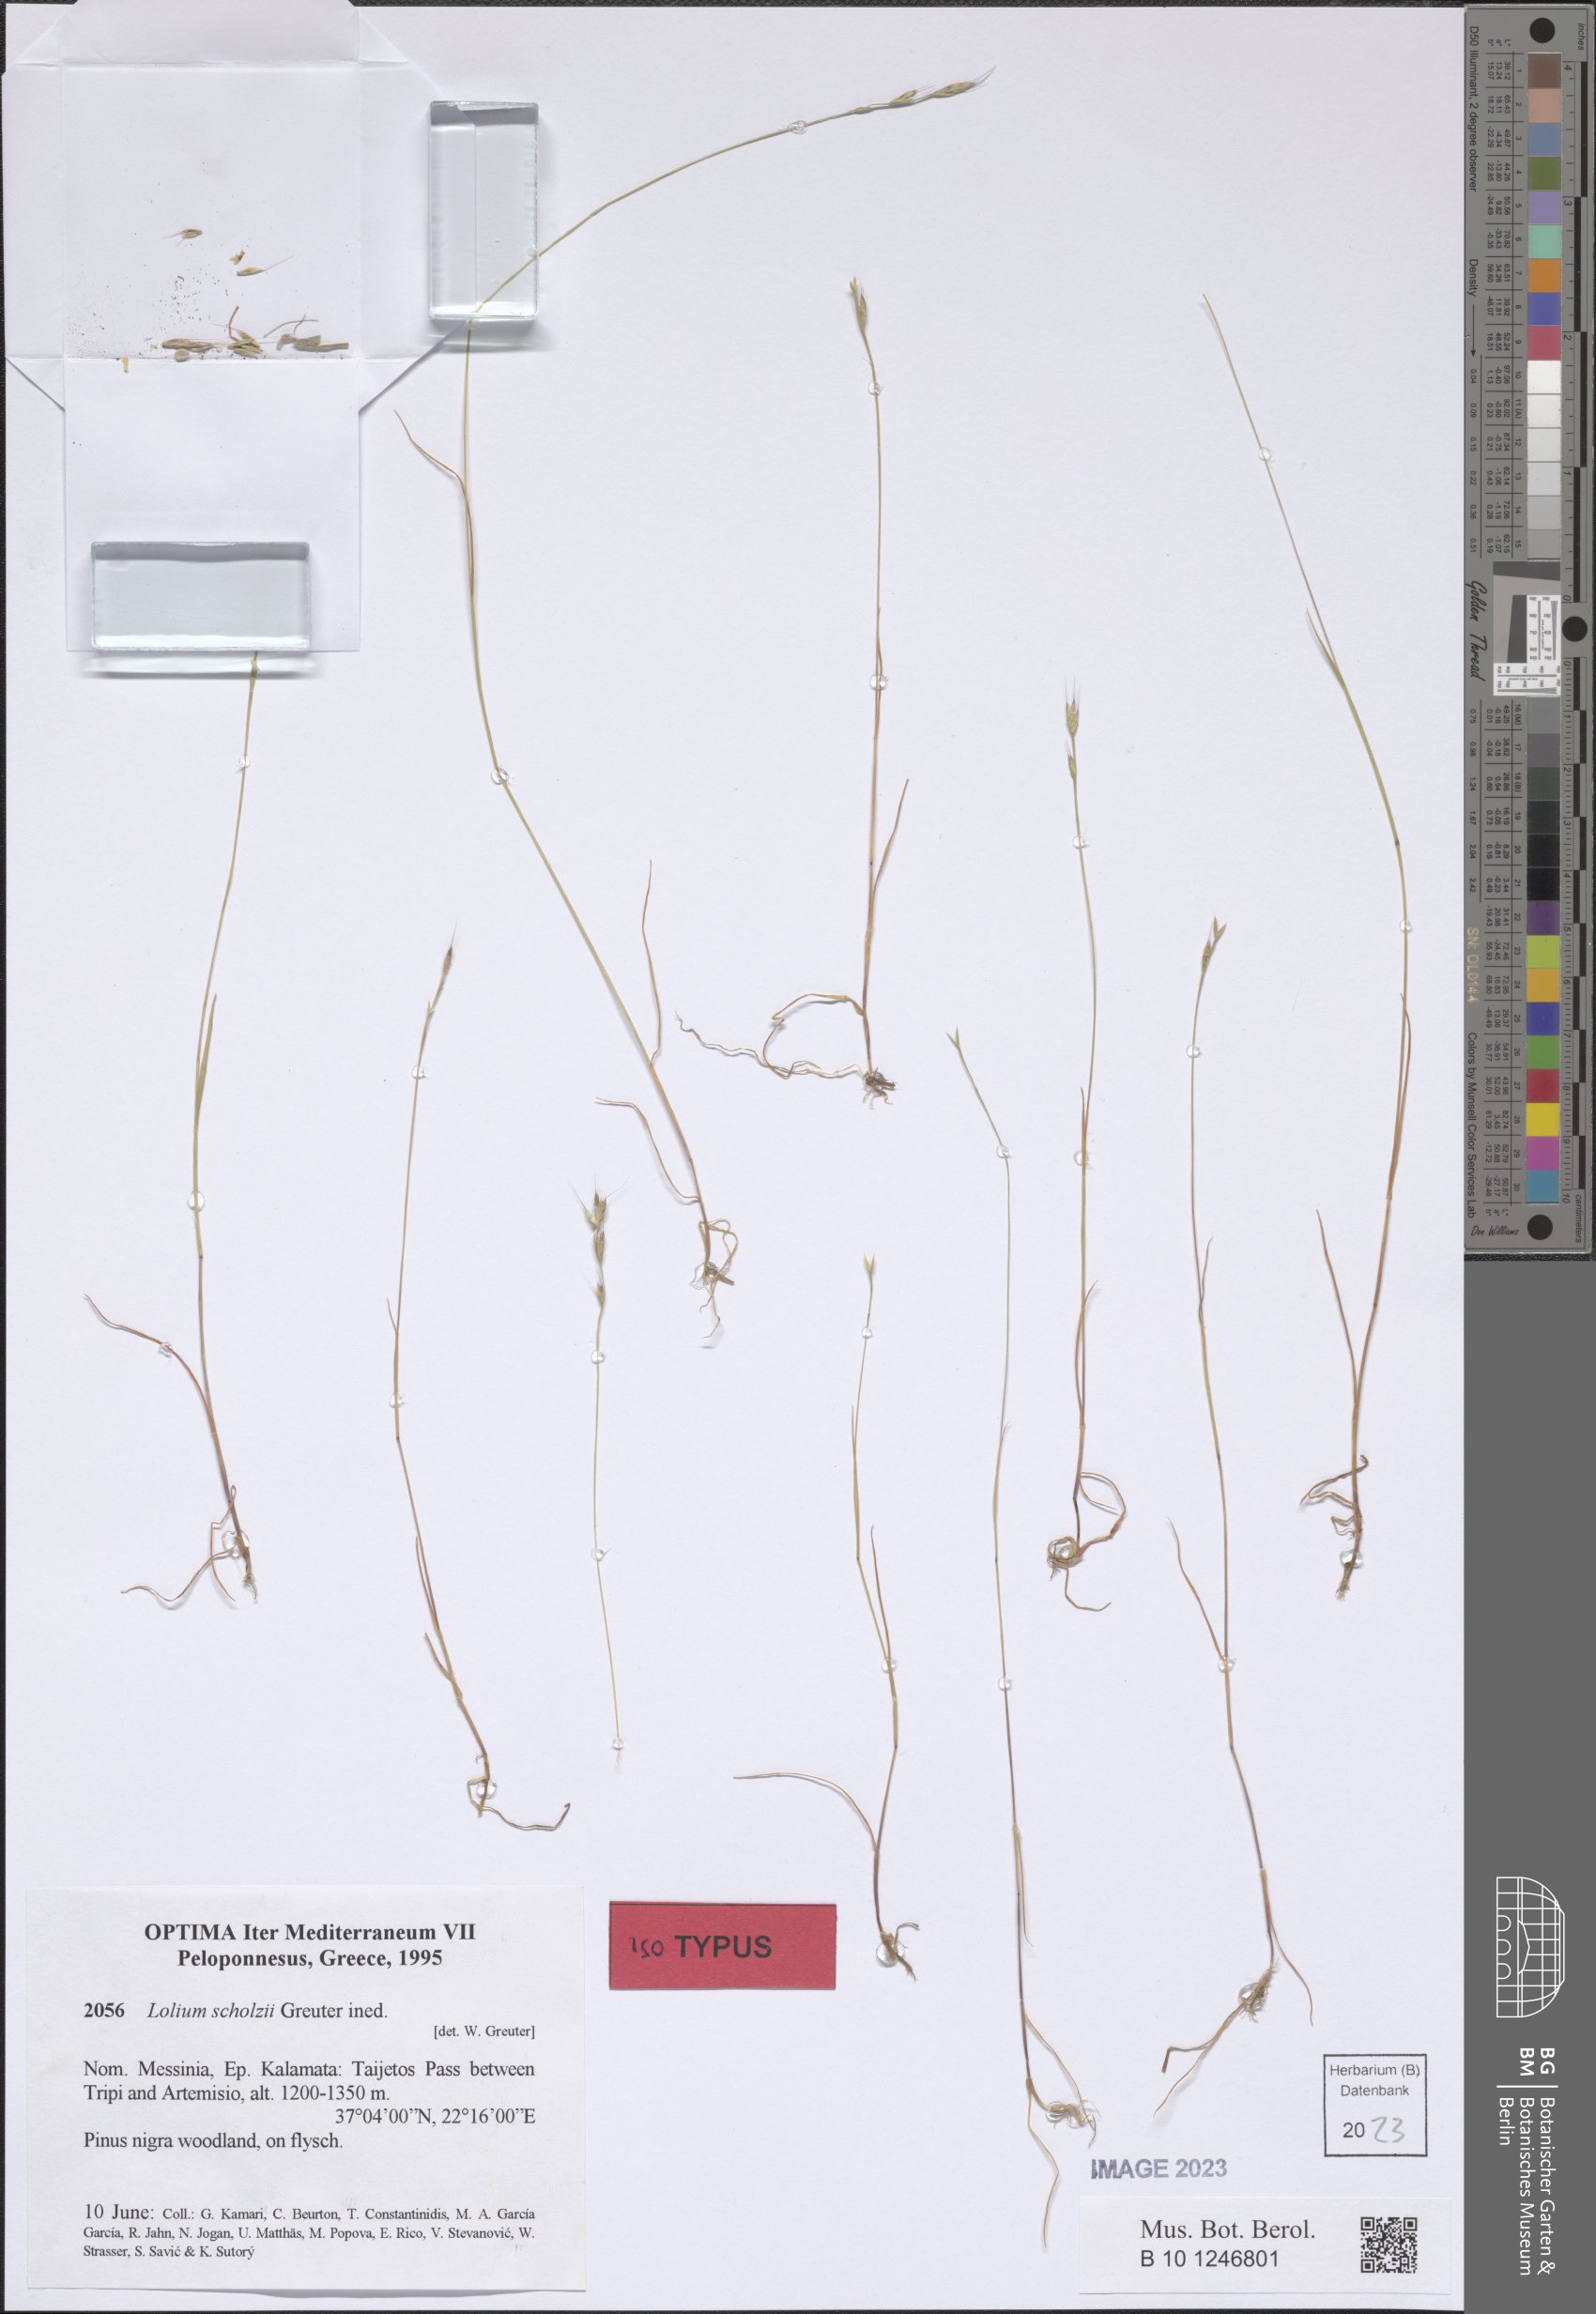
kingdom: Plantae
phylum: Tracheophyta
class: Liliopsida
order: Poales
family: Poaceae
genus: Lolium
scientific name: Lolium rigidum
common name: Wimmera ryegrass
